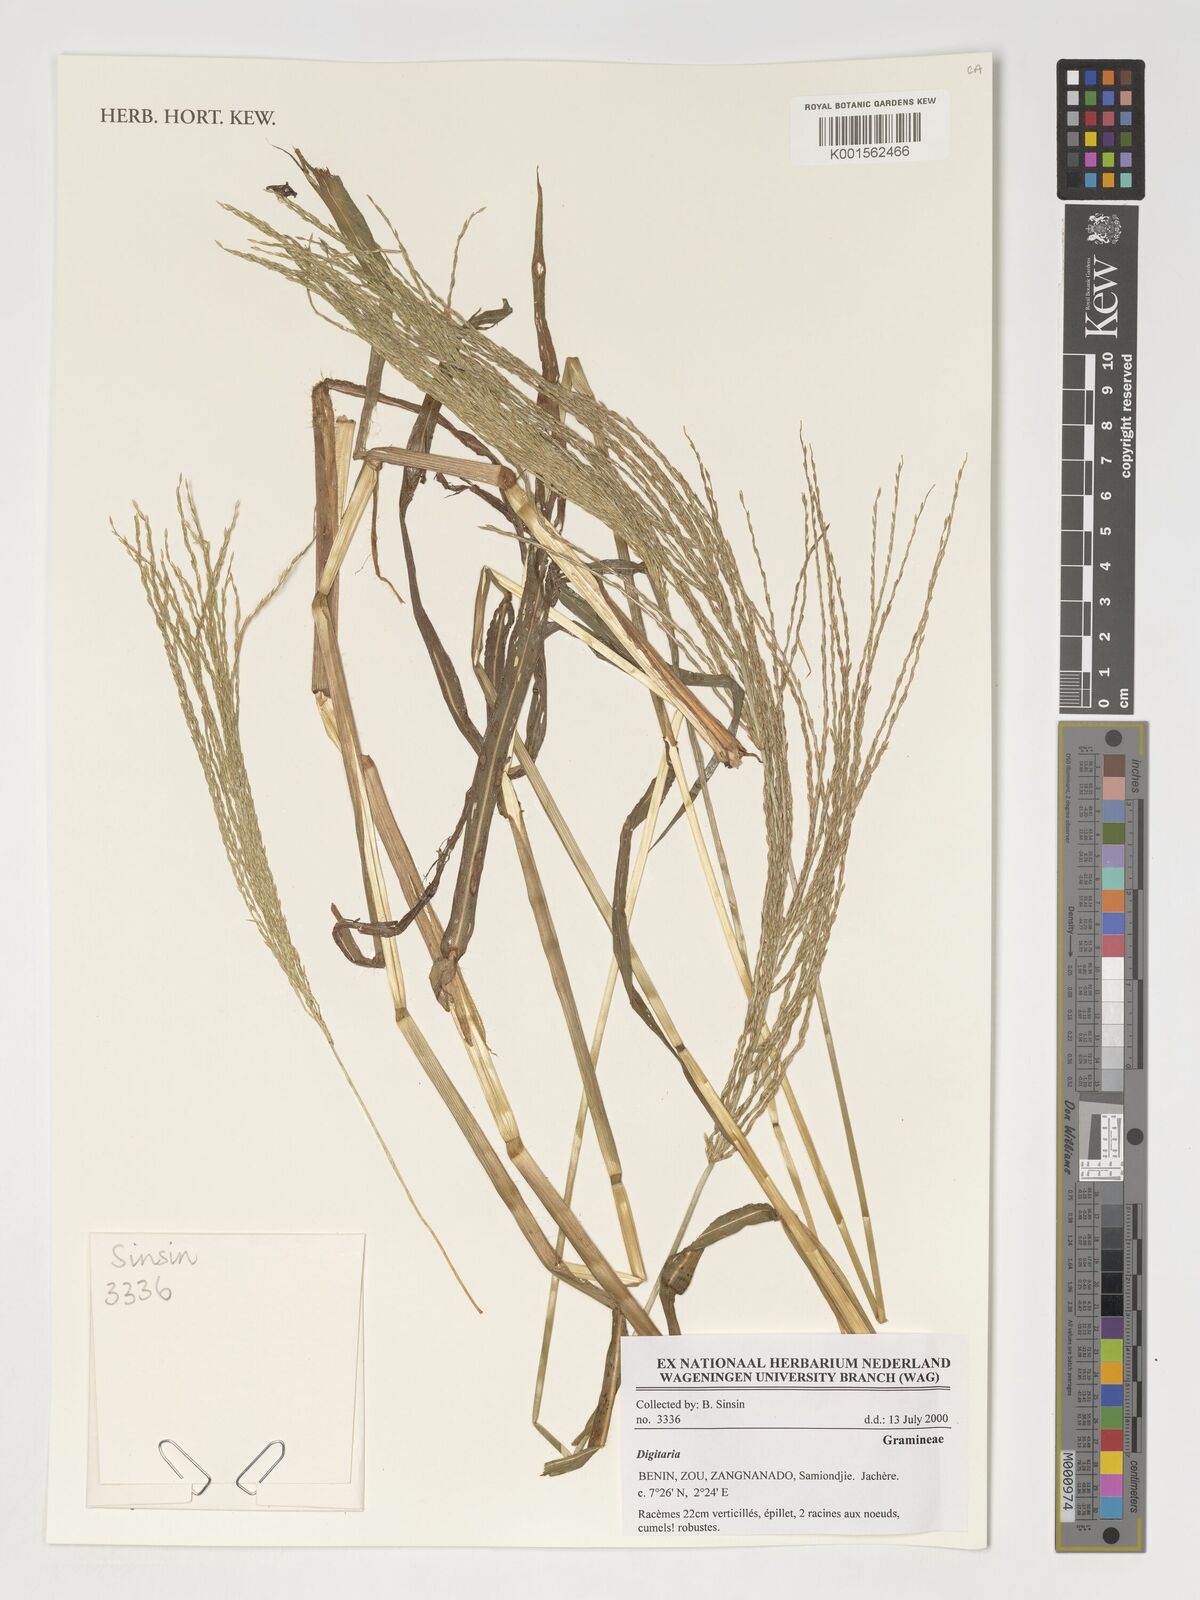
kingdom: Plantae
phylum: Tracheophyta
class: Liliopsida
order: Poales
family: Poaceae
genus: Digitaria
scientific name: Digitaria
